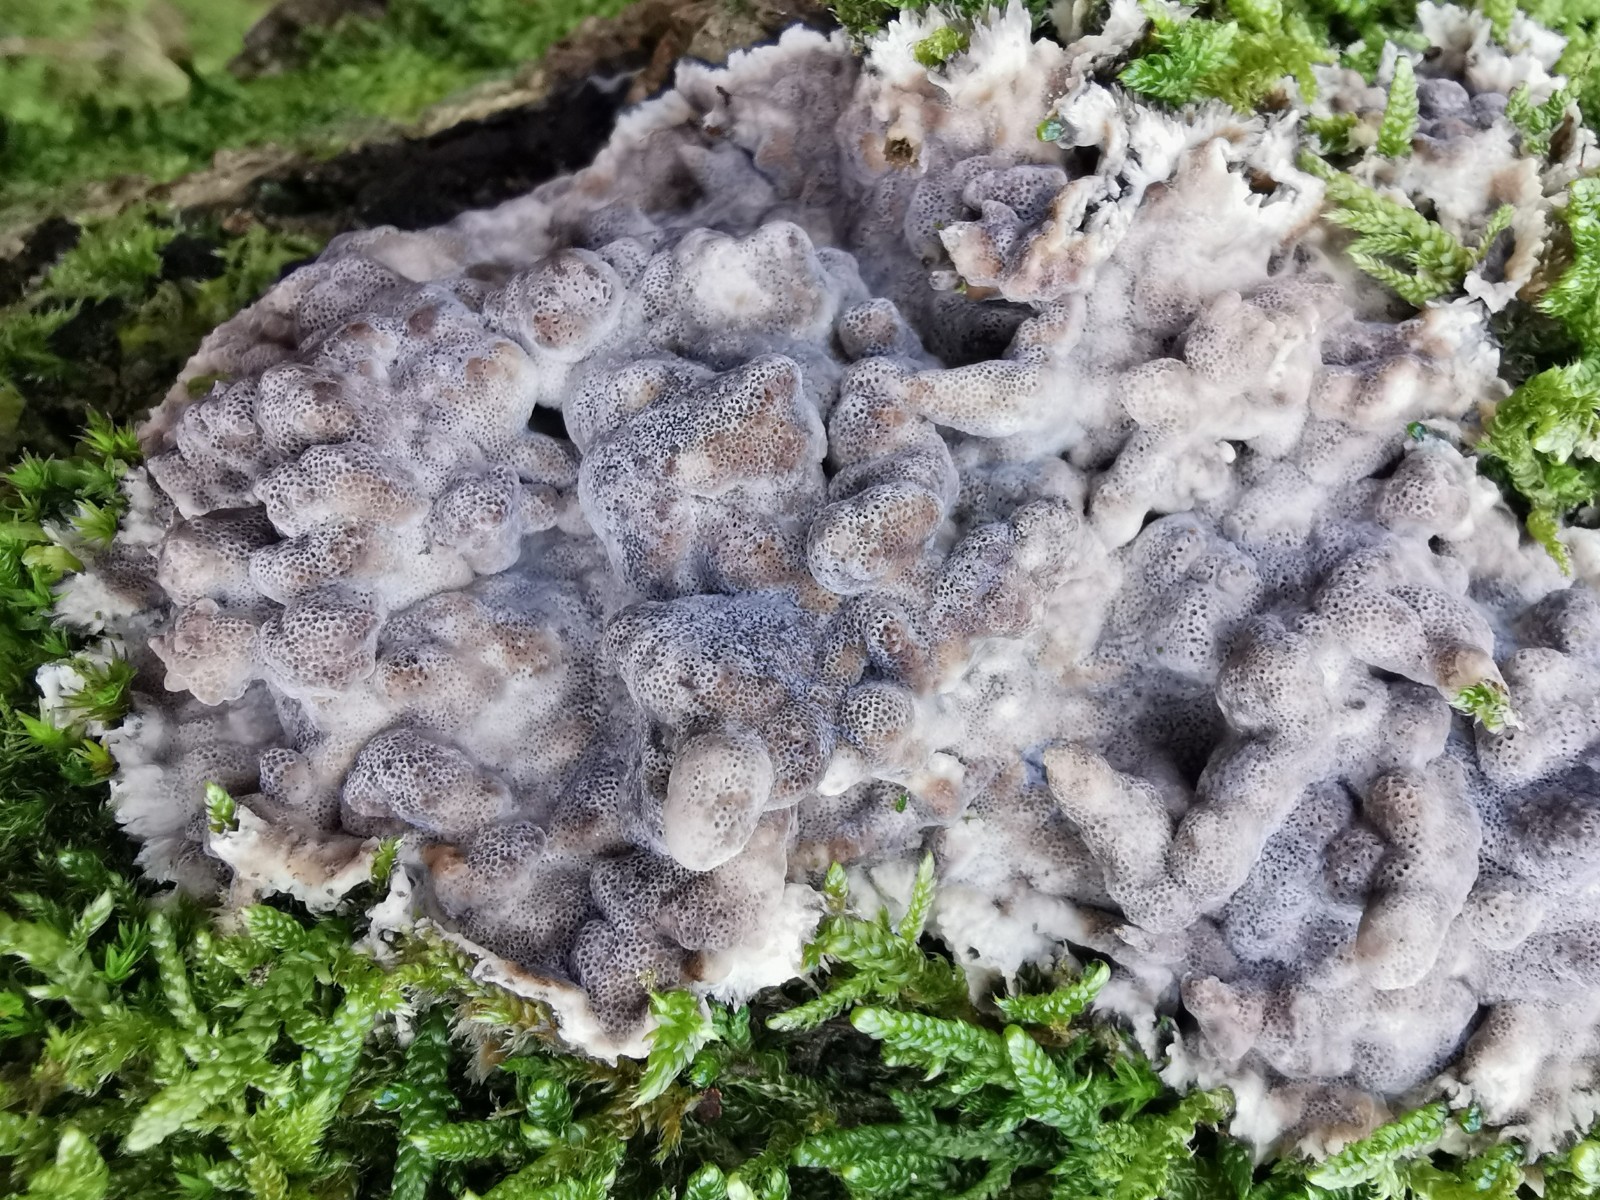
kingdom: Fungi
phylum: Basidiomycota
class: Agaricomycetes
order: Polyporales
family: Phanerochaetaceae
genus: Bjerkandera
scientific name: Bjerkandera adusta
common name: sveden sodporesvamp
